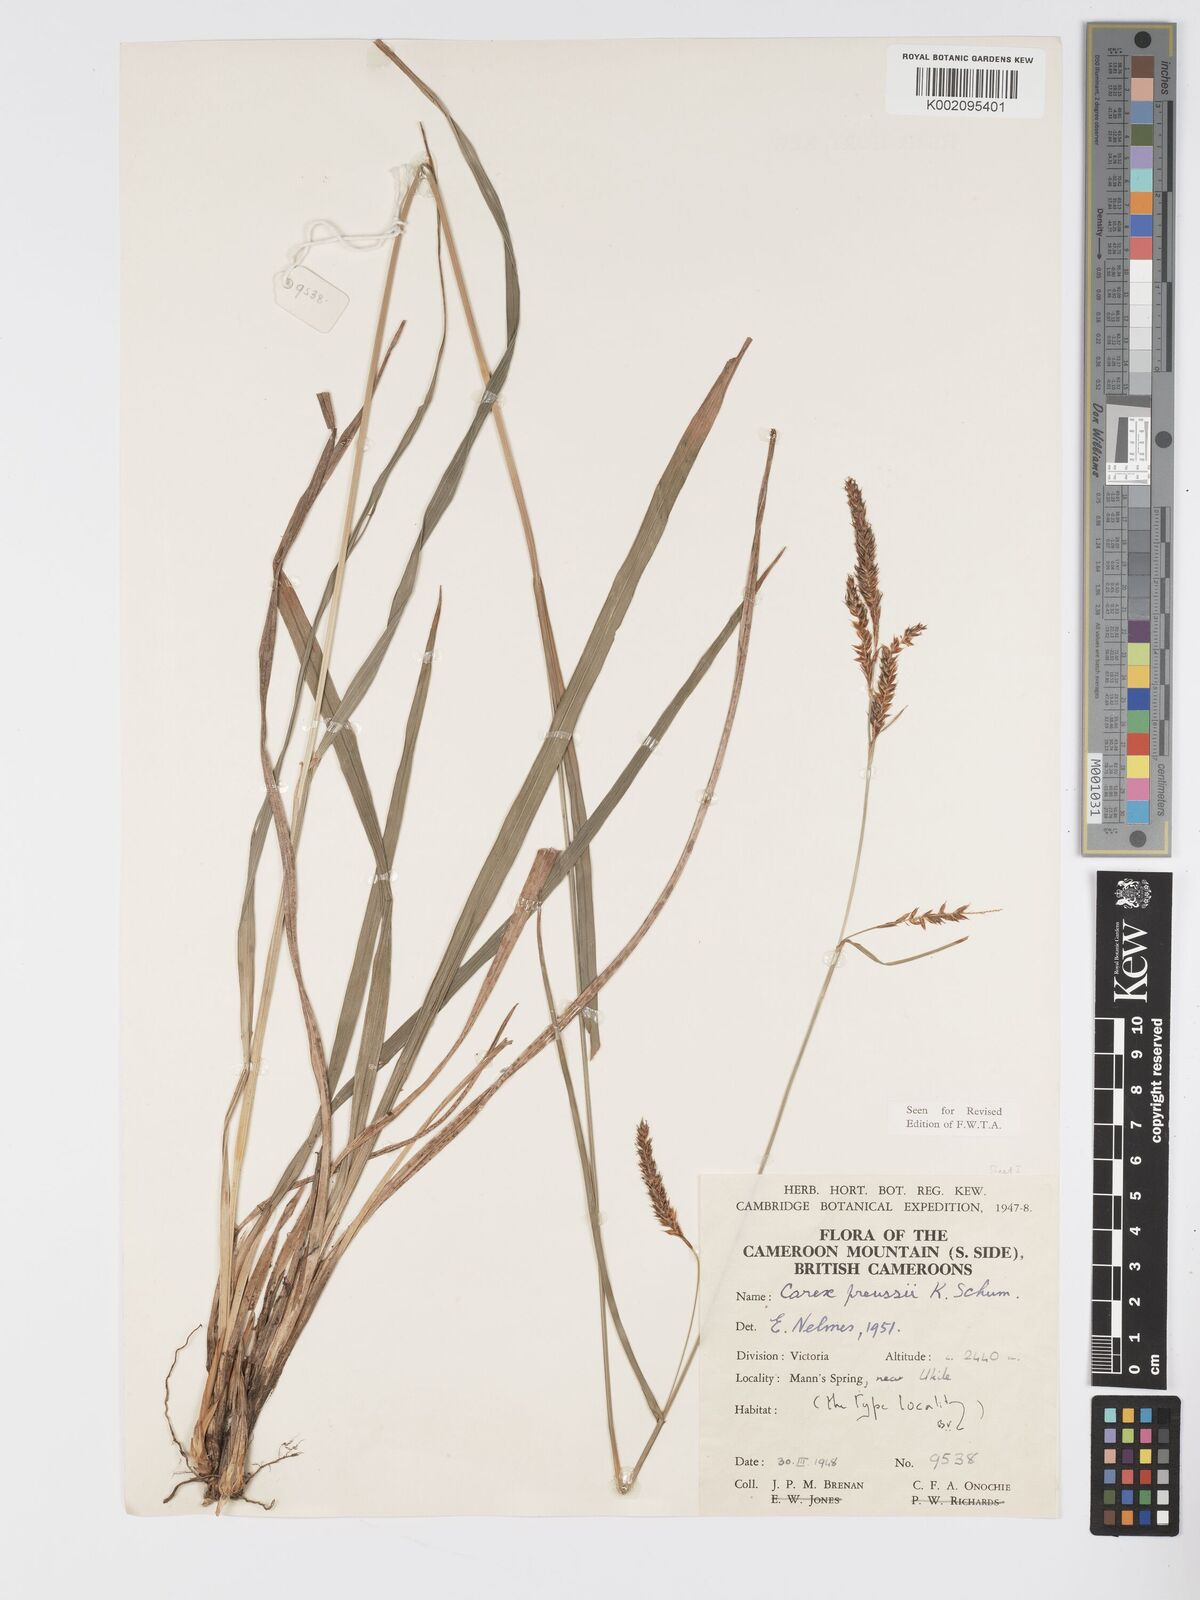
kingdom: Plantae
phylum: Tracheophyta
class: Liliopsida
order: Poales
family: Cyperaceae
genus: Carex
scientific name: Carex petitiana
